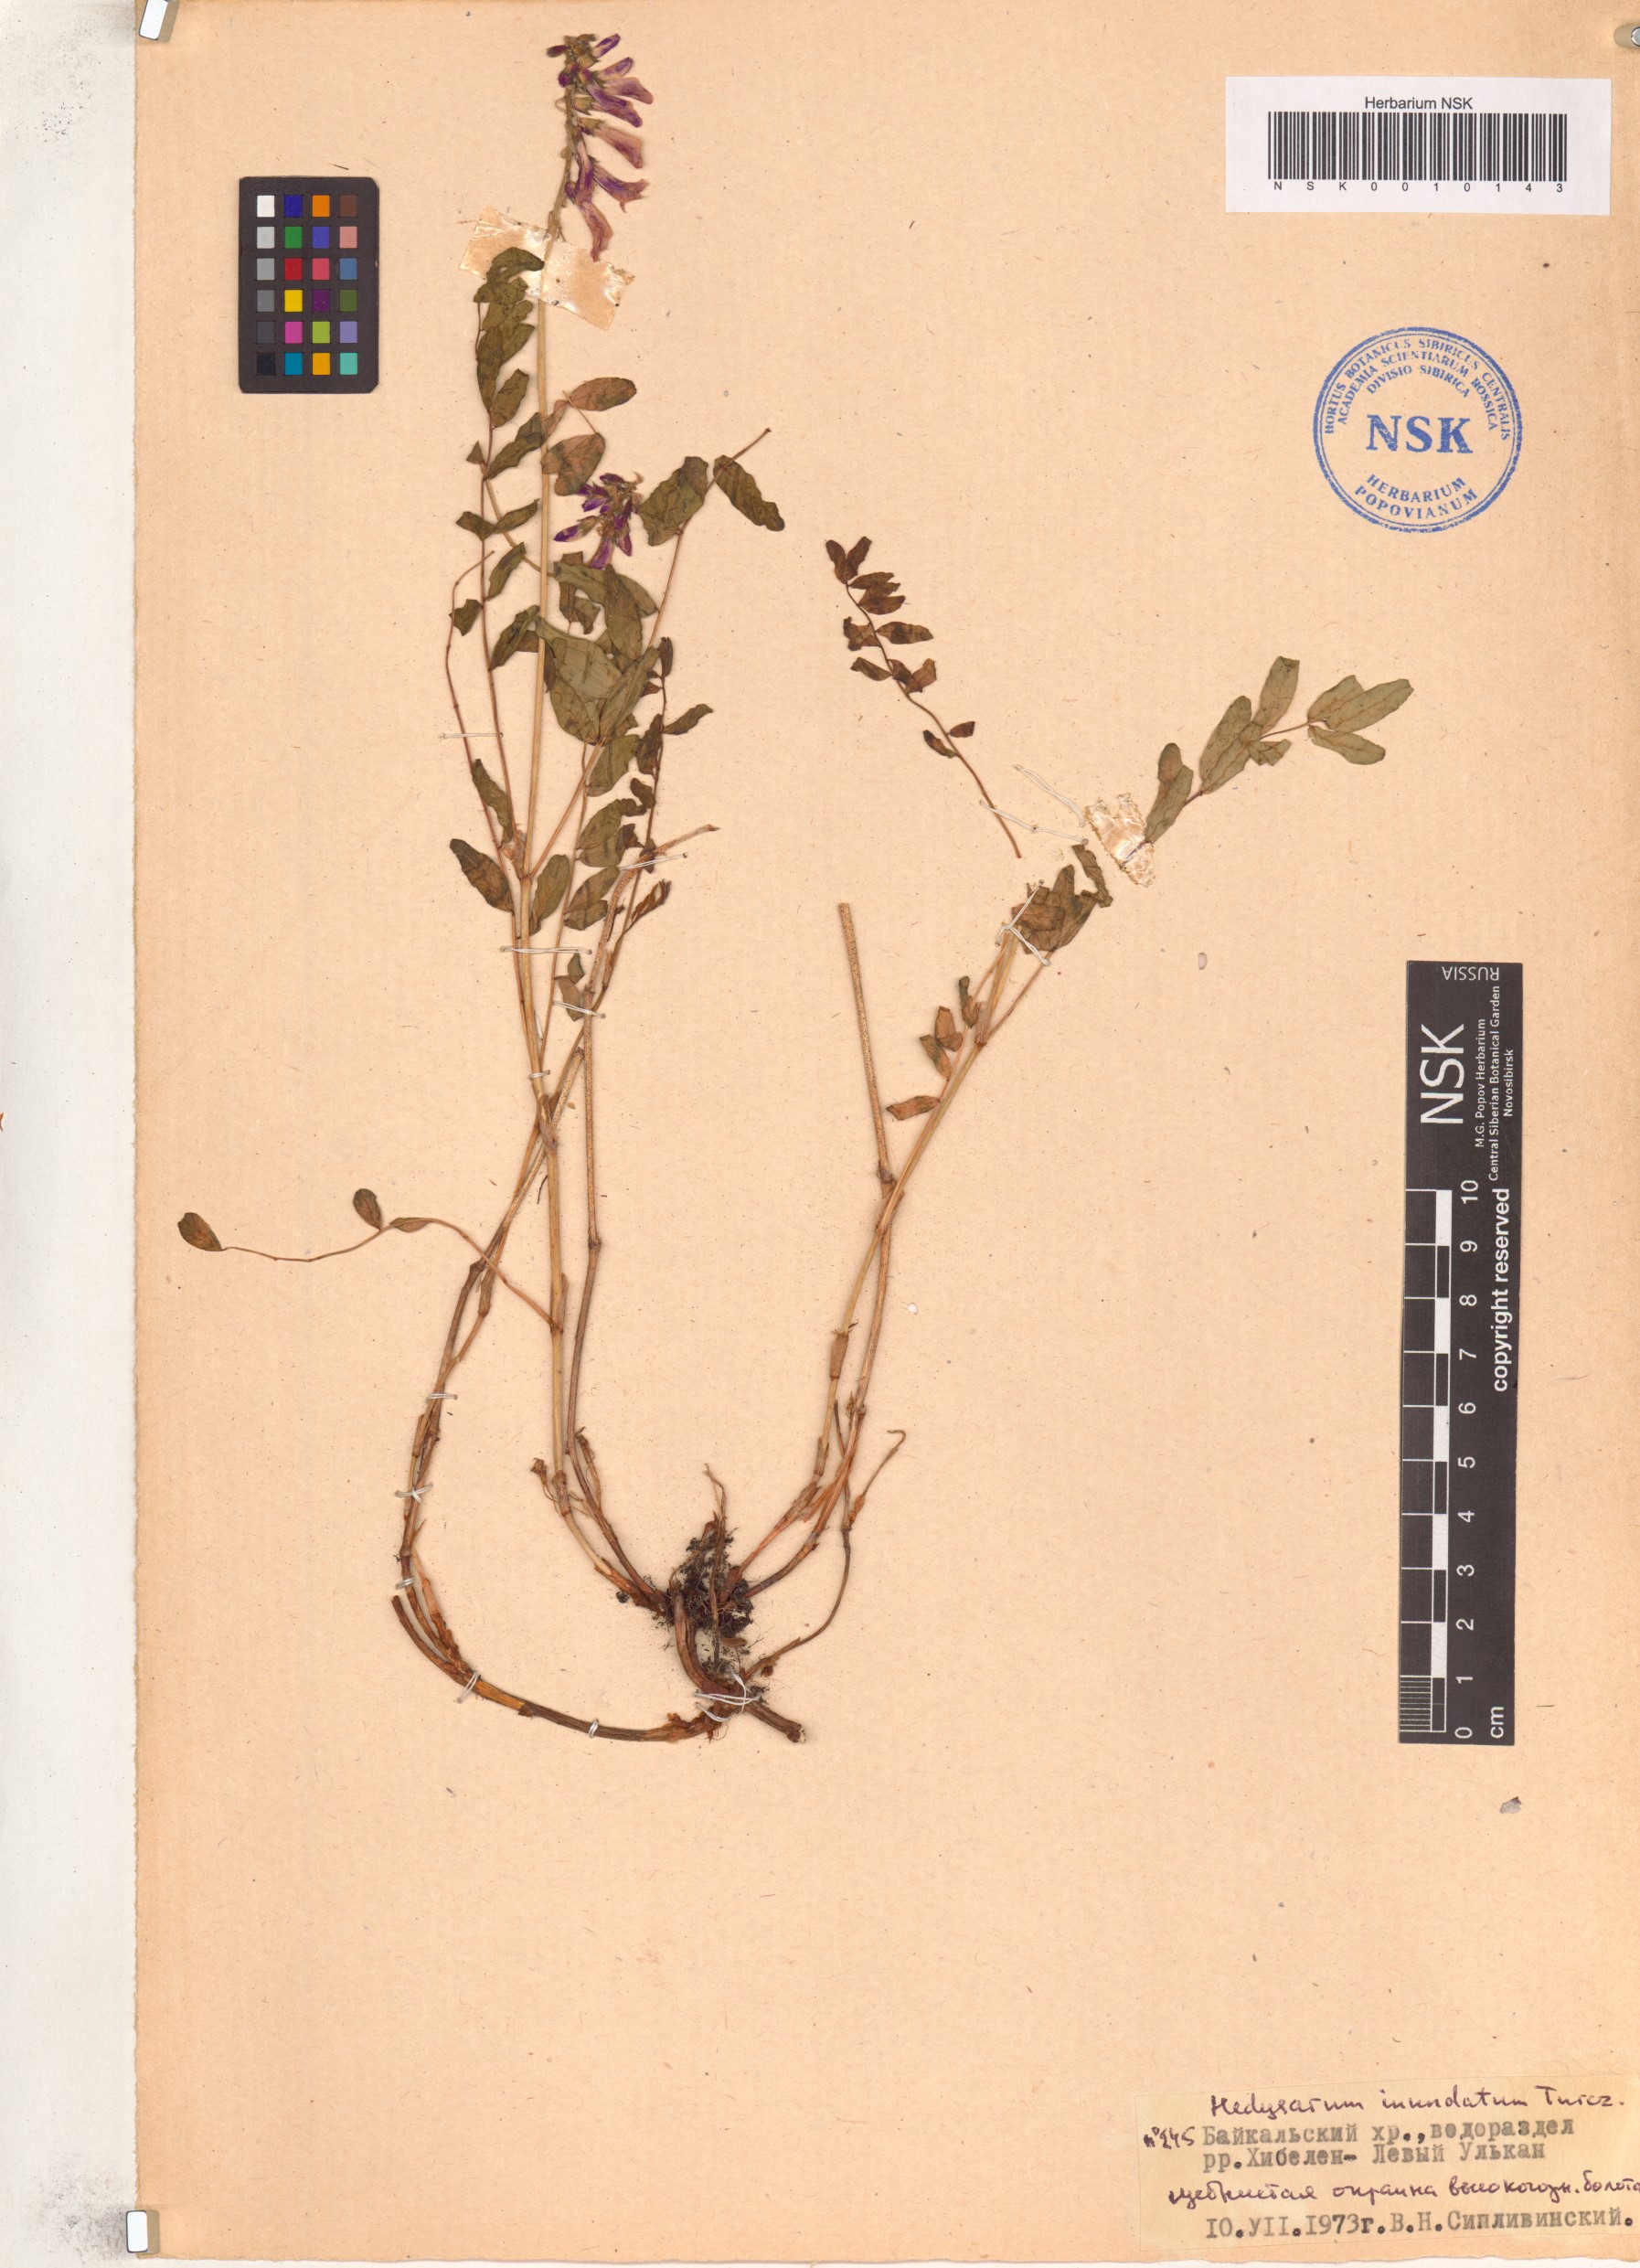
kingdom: Plantae
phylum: Tracheophyta
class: Magnoliopsida
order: Fabales
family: Fabaceae
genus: Hedysarum
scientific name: Hedysarum inundatum
